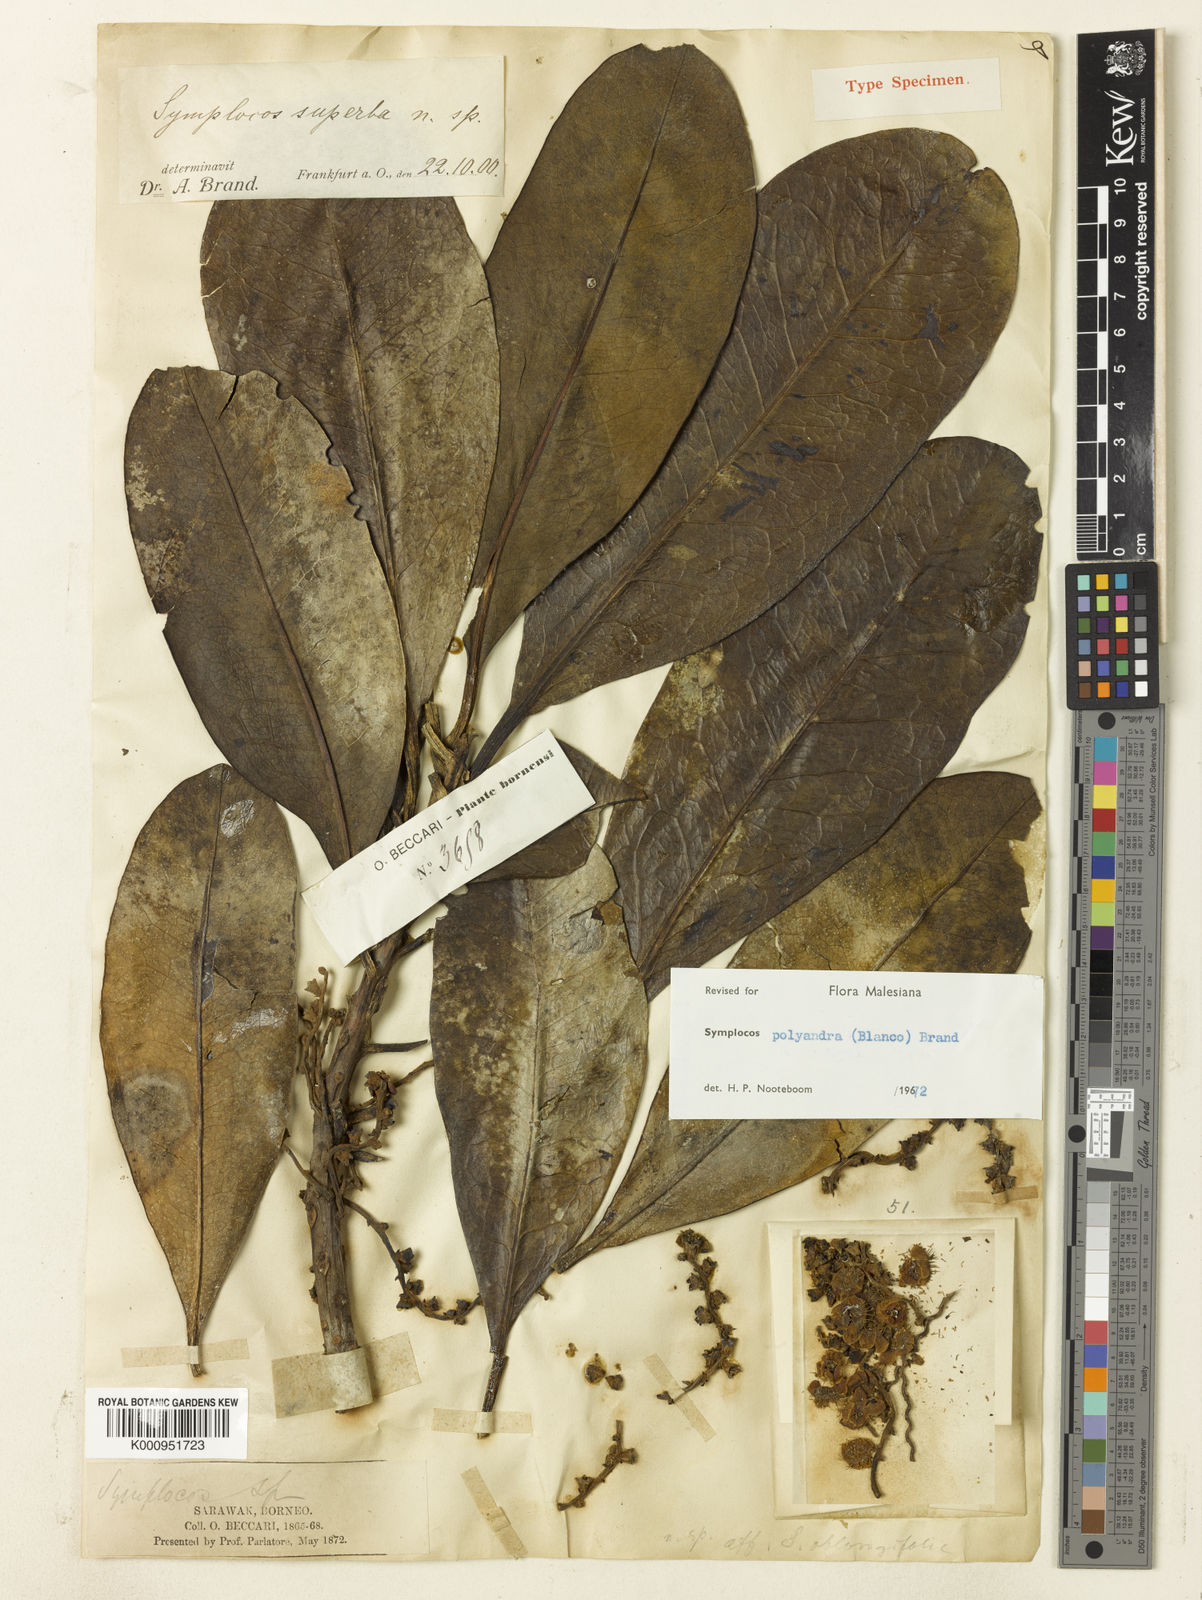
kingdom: Plantae
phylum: Tracheophyta
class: Magnoliopsida
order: Ericales
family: Symplocaceae
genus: Symplocos
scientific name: Symplocos polyandra
